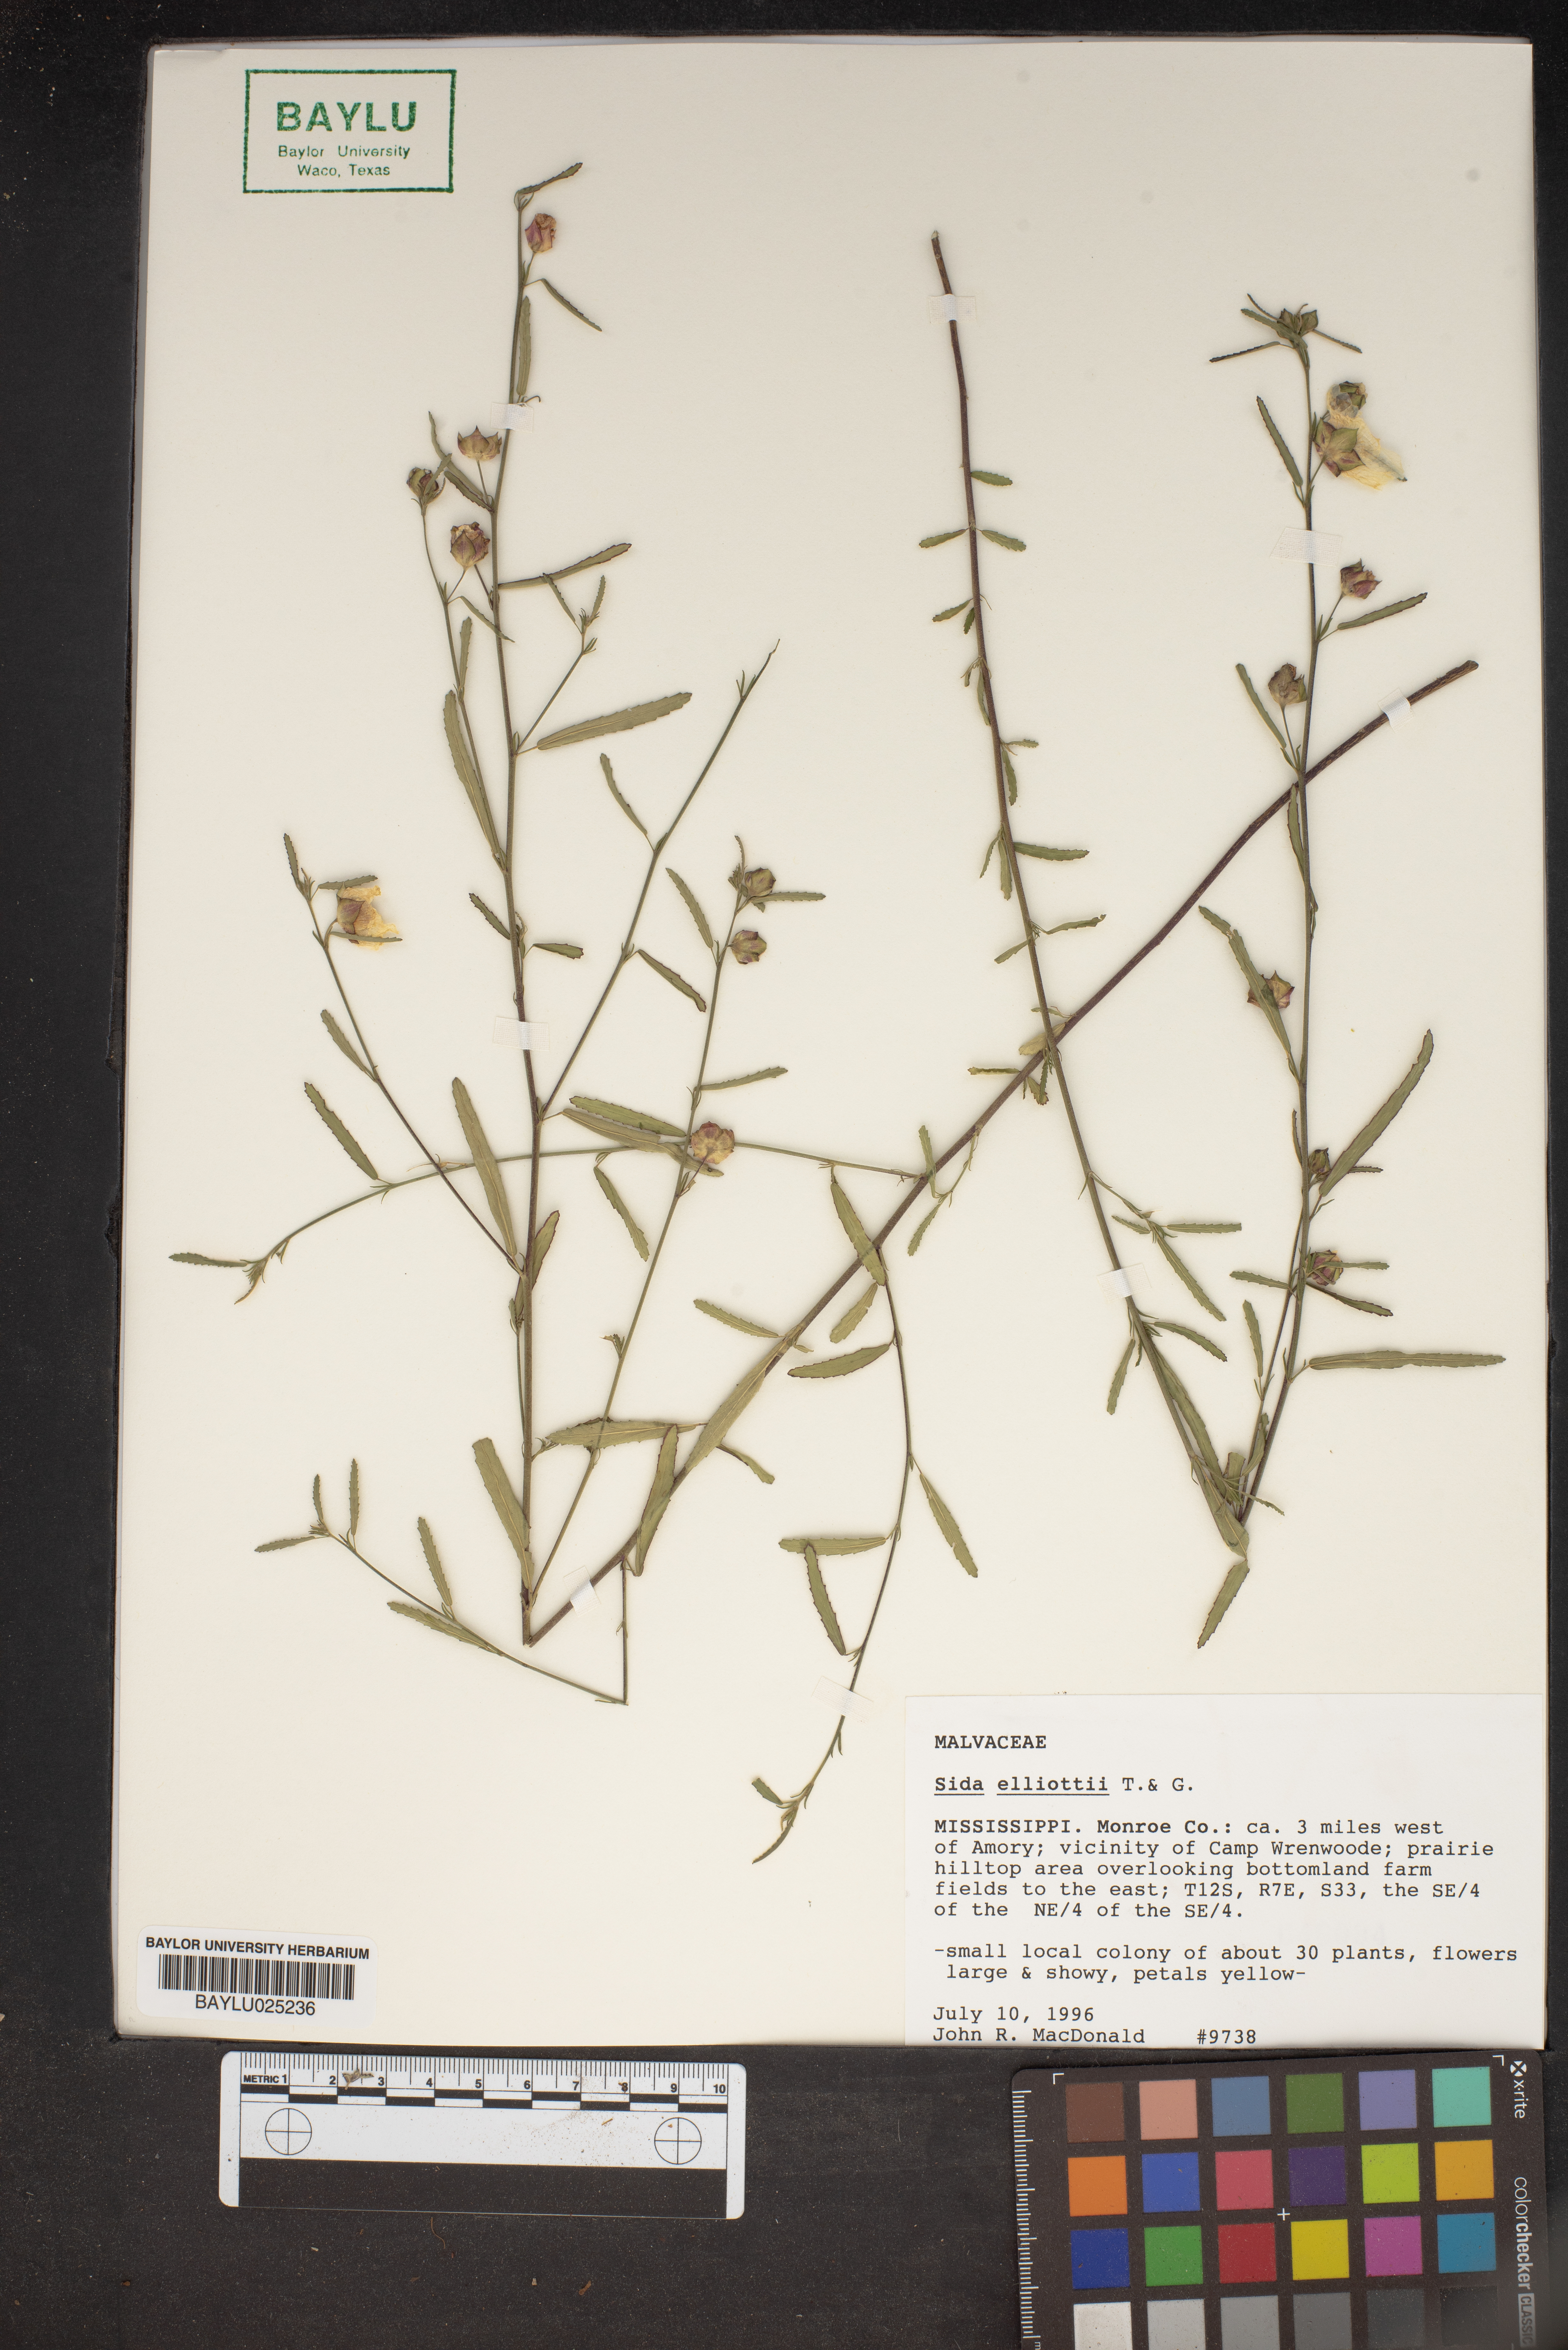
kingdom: Plantae
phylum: Tracheophyta
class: Magnoliopsida
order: Malvales
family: Malvaceae
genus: Sida
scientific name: Sida elliottii
